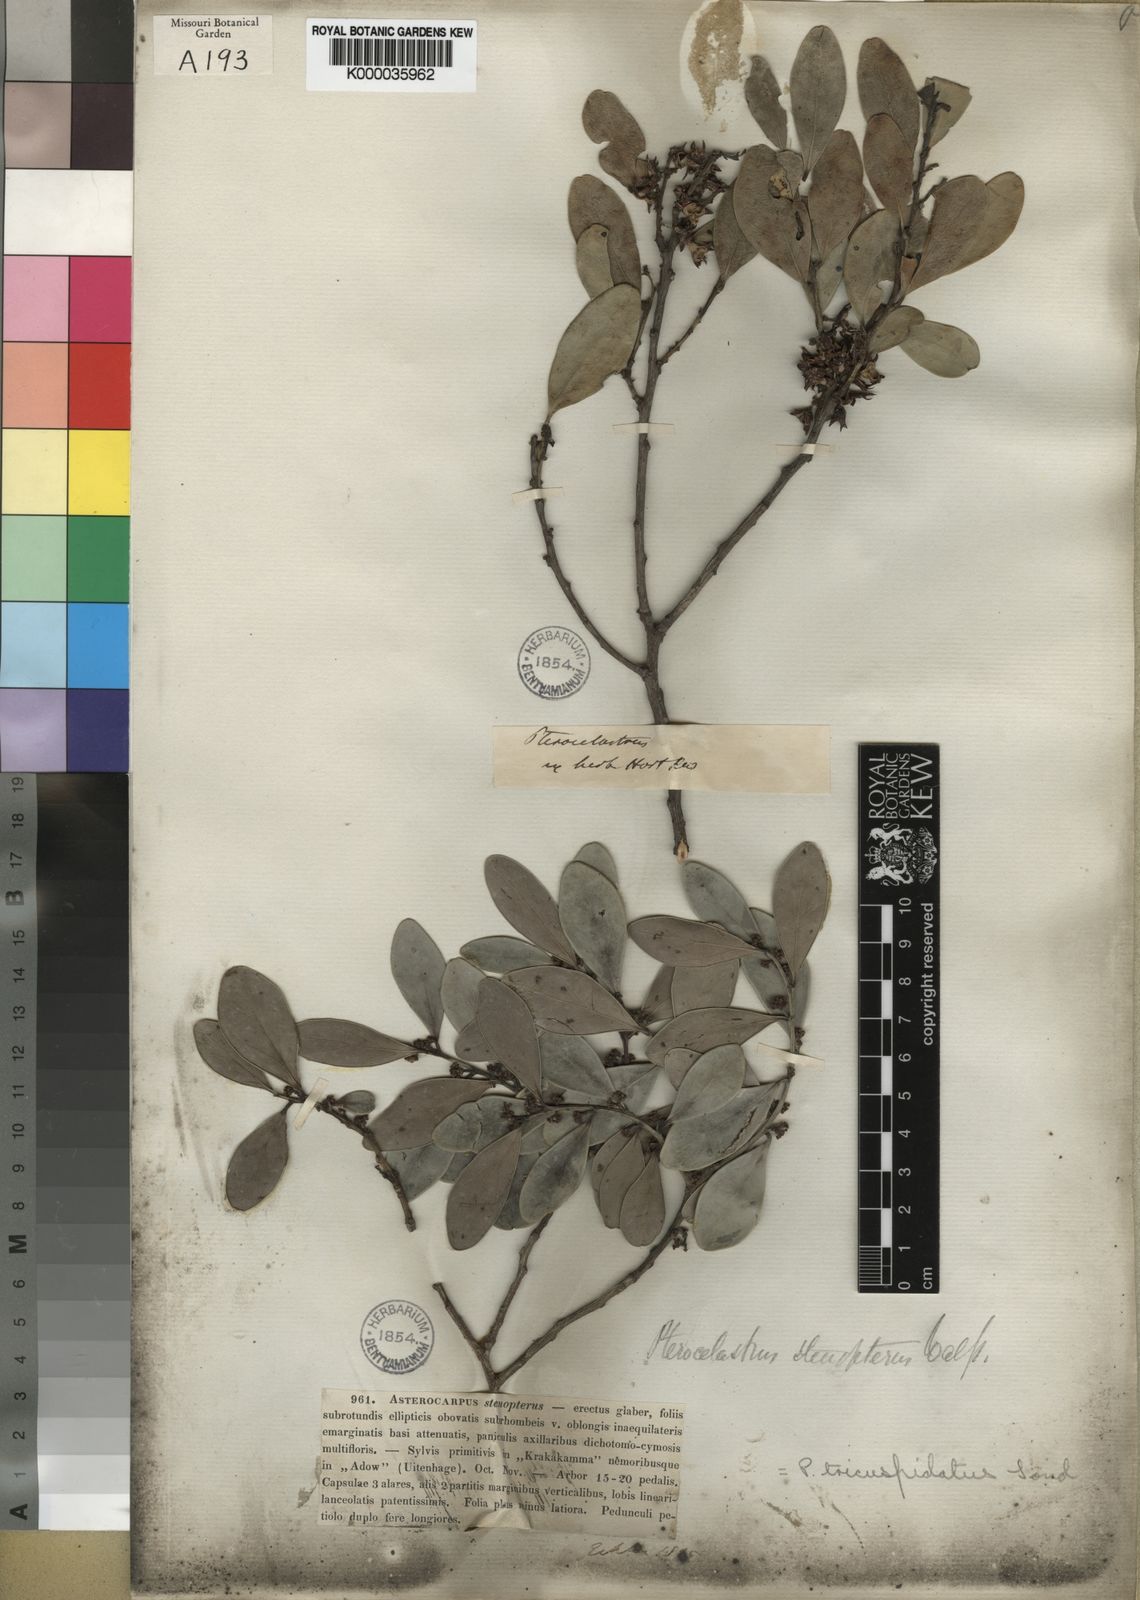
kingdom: Plantae
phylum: Tracheophyta
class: Magnoliopsida
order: Celastrales
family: Celastraceae
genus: Pterocelastrus
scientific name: Pterocelastrus tricuspidatus
